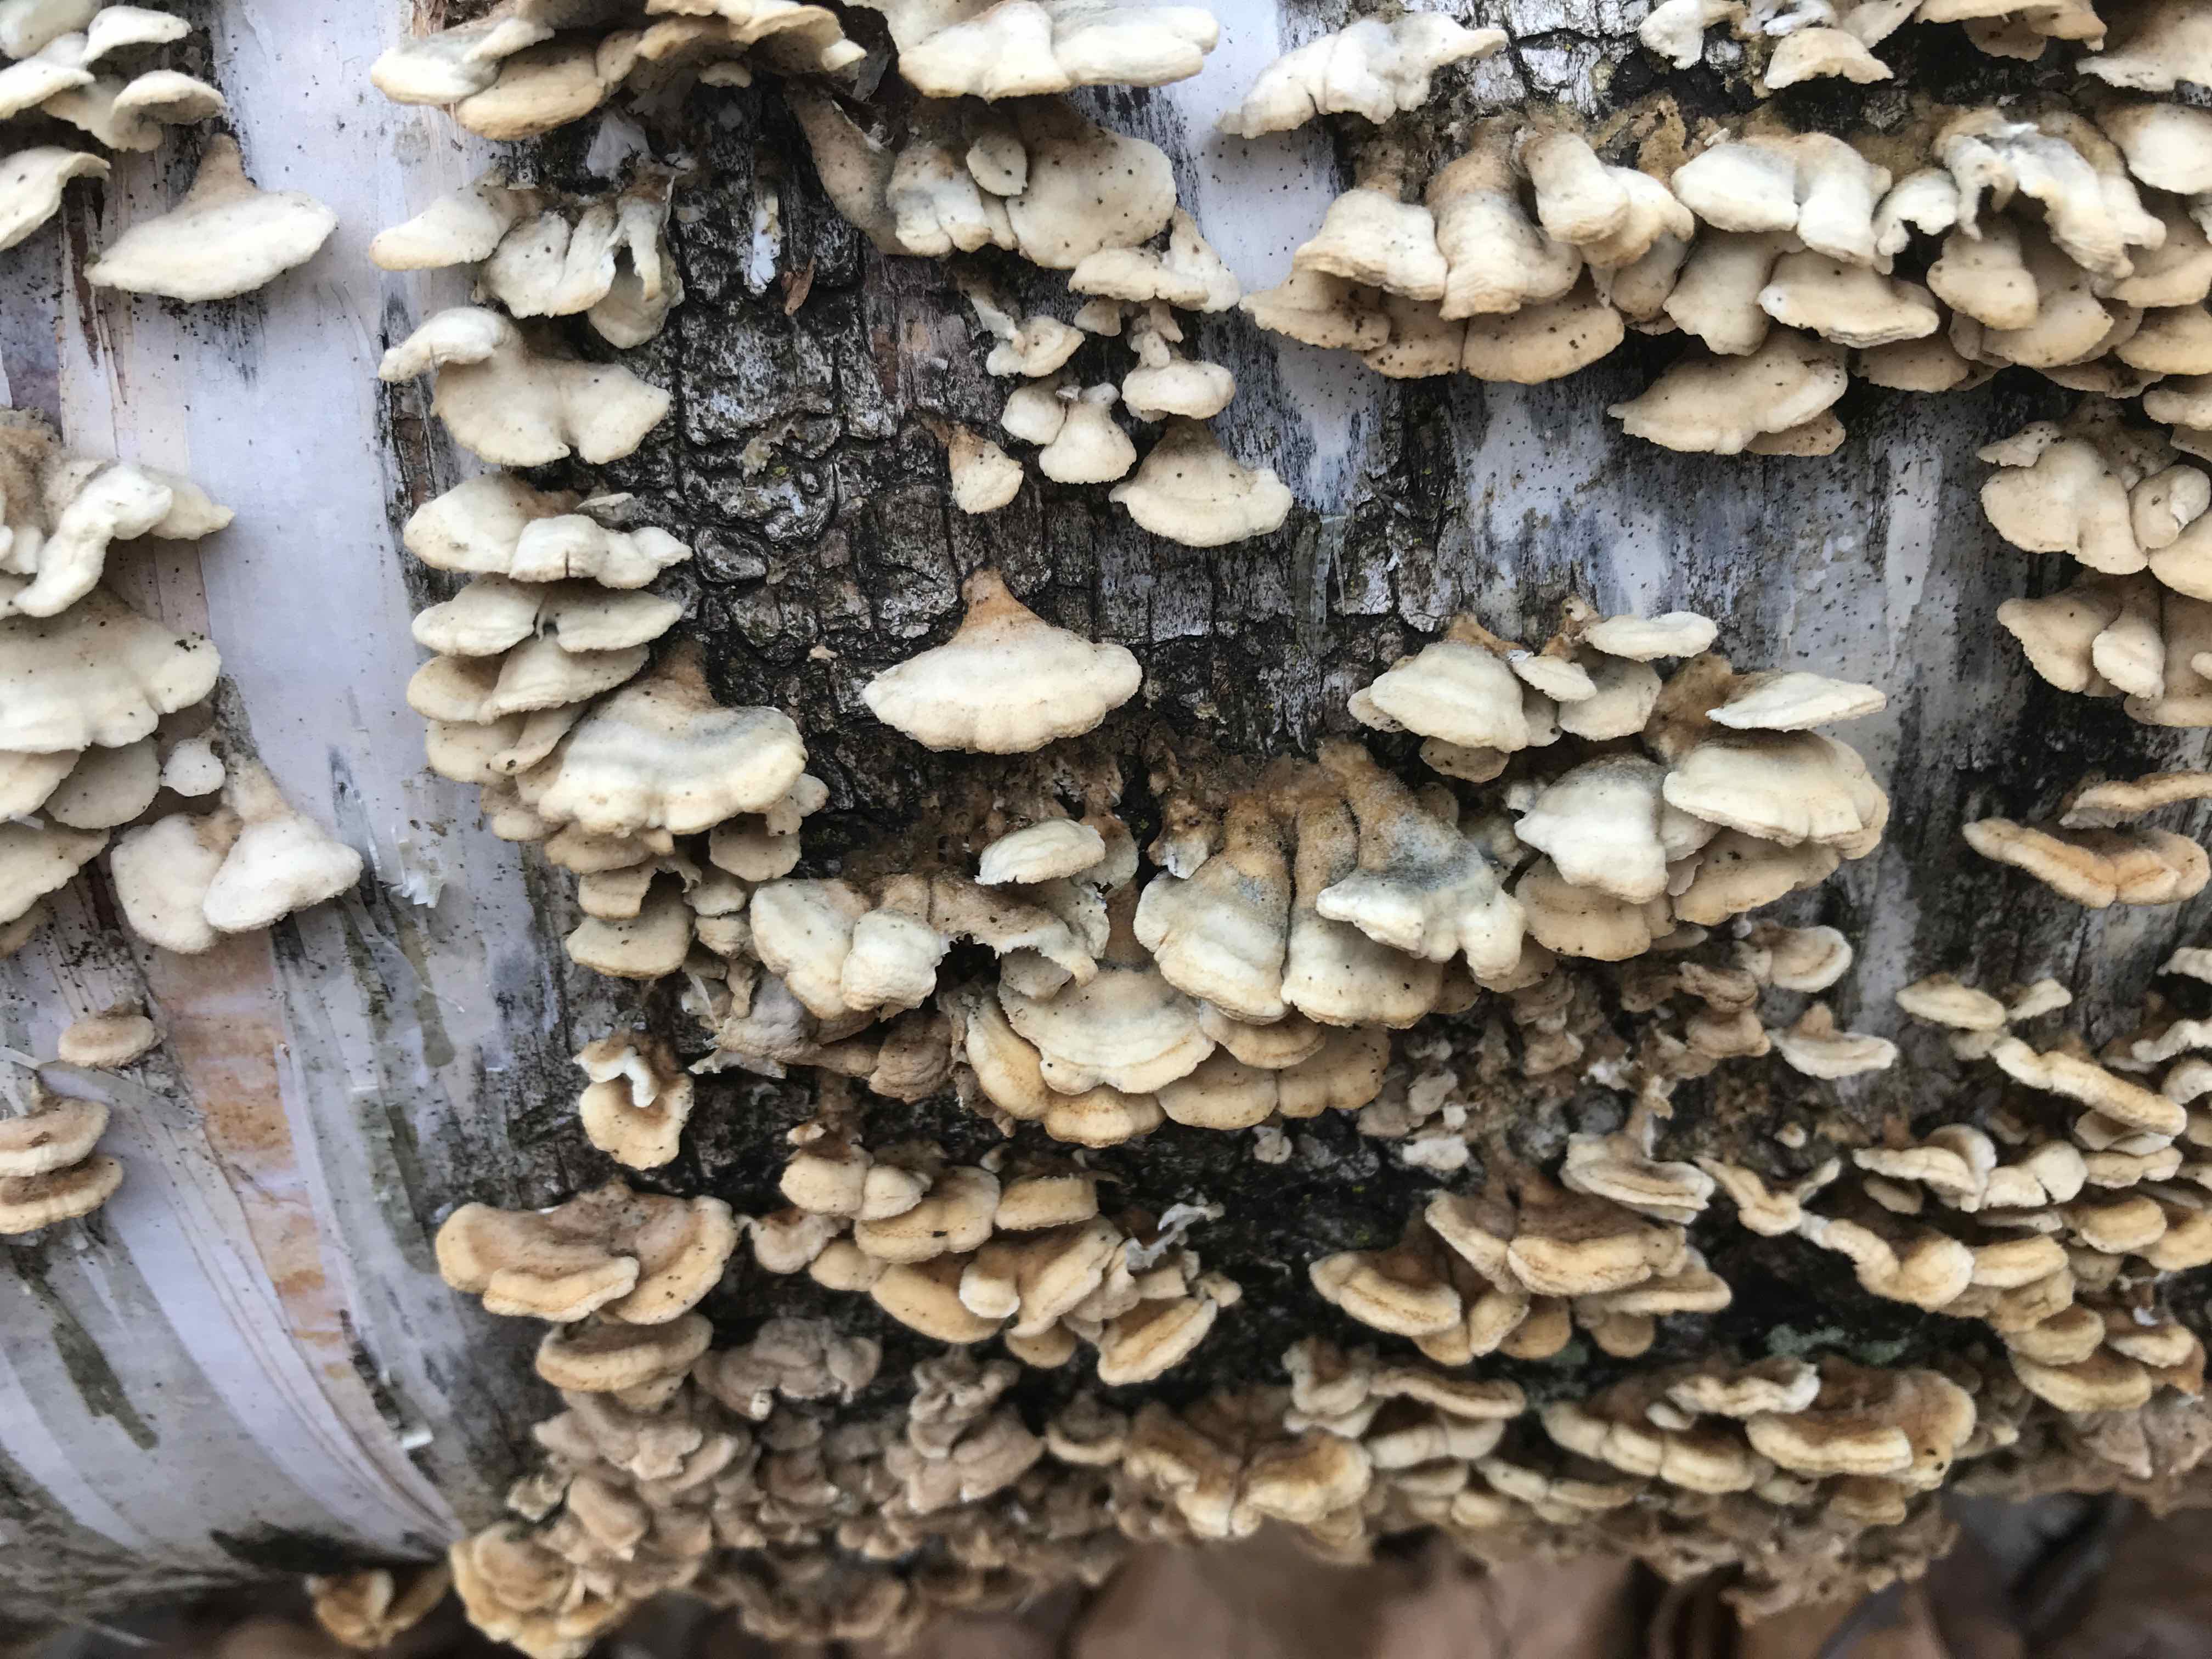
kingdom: Fungi
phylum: Basidiomycota
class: Agaricomycetes
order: Amylocorticiales
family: Amylocorticiaceae
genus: Plicaturopsis
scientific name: Plicaturopsis crispa
